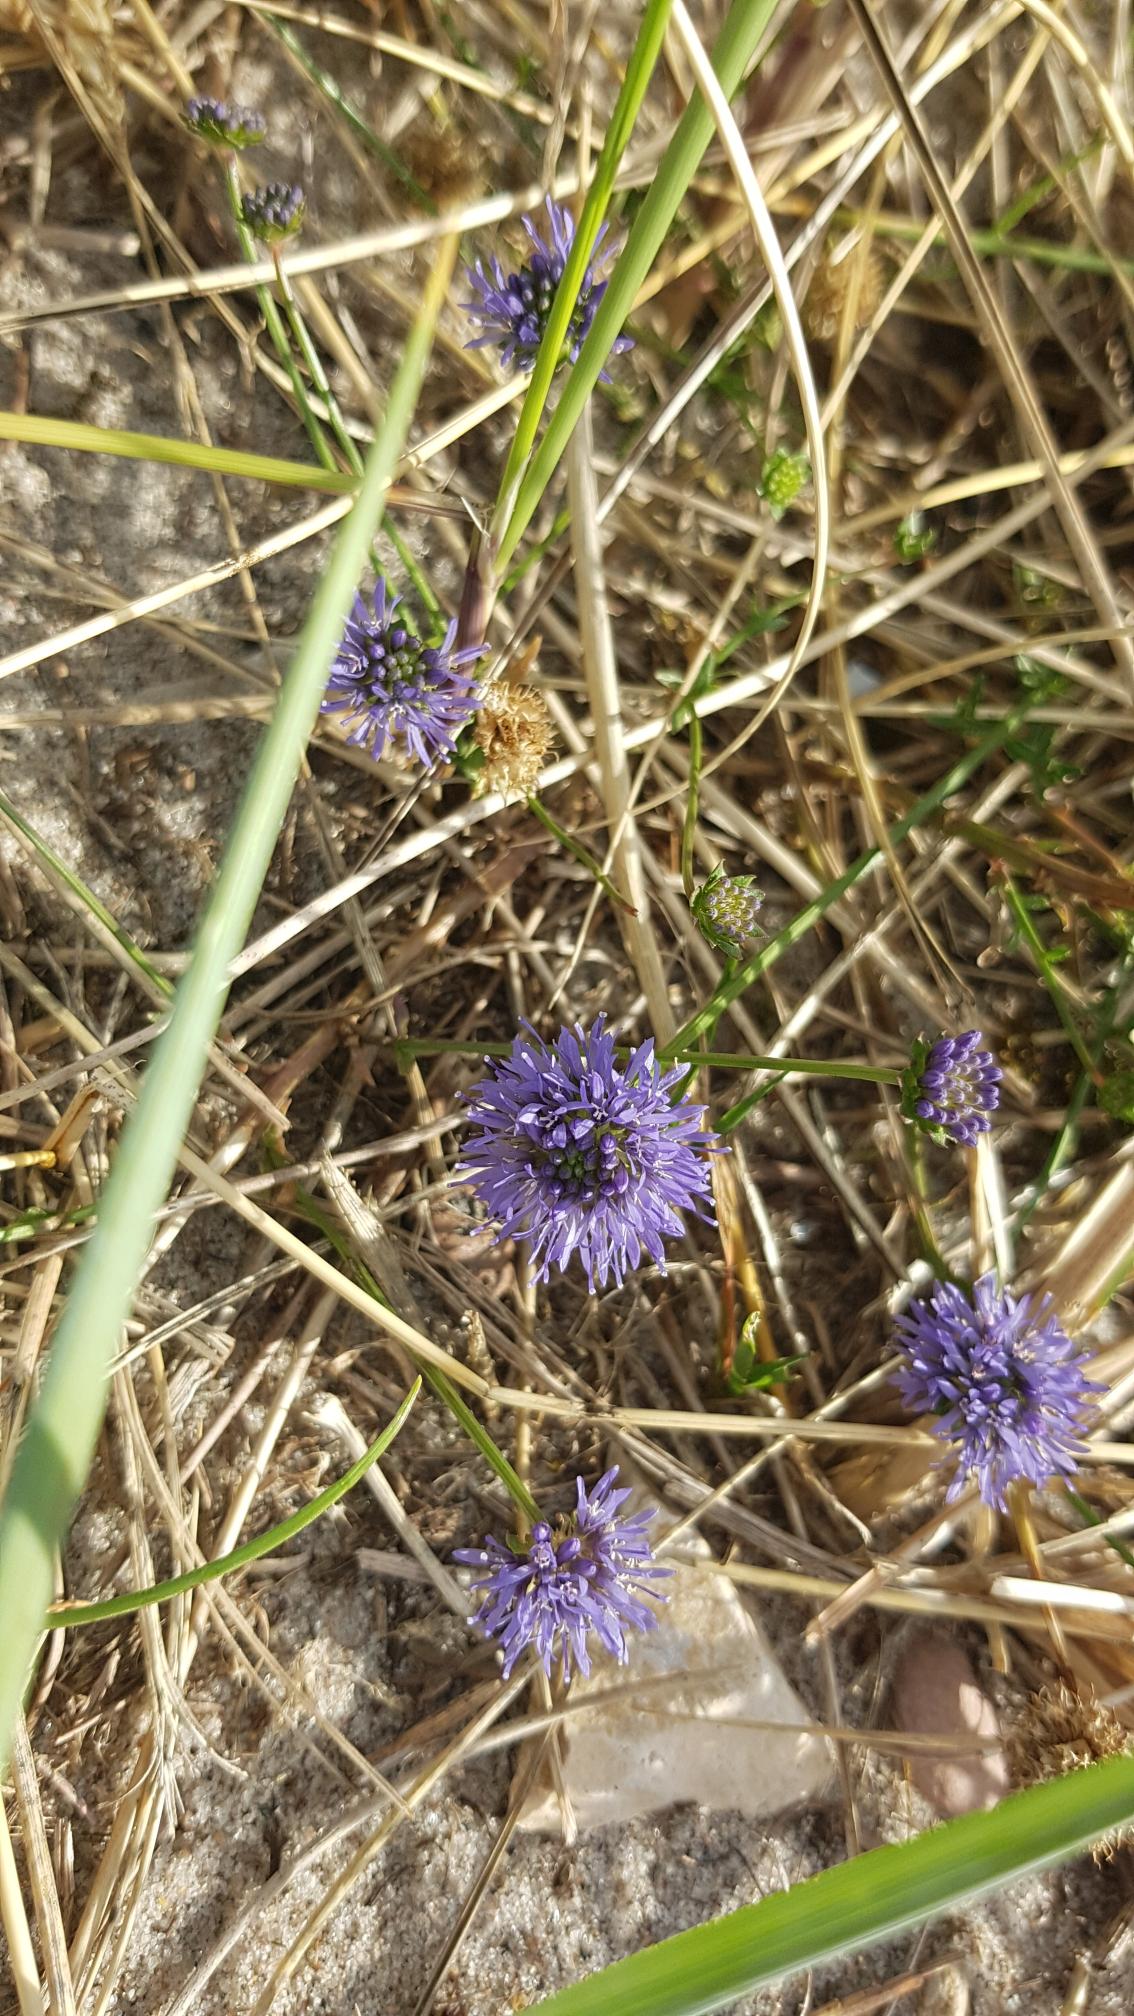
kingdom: Plantae
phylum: Tracheophyta
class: Magnoliopsida
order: Asterales
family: Campanulaceae
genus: Jasione
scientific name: Jasione montana
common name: Blåmunke
